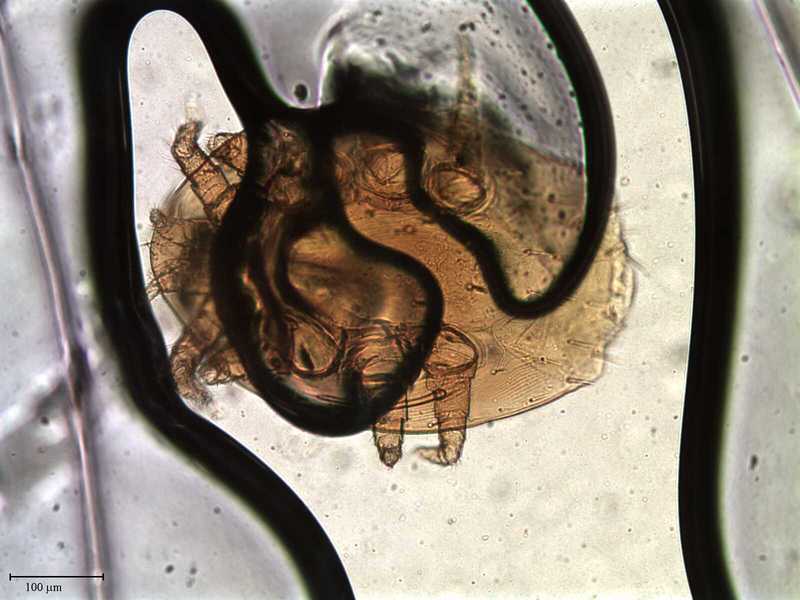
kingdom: Animalia
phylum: Arthropoda
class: Arachnida
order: Mesostigmata
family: Laelapidae
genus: Myrmozercon
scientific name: Myrmozercon liguricus
